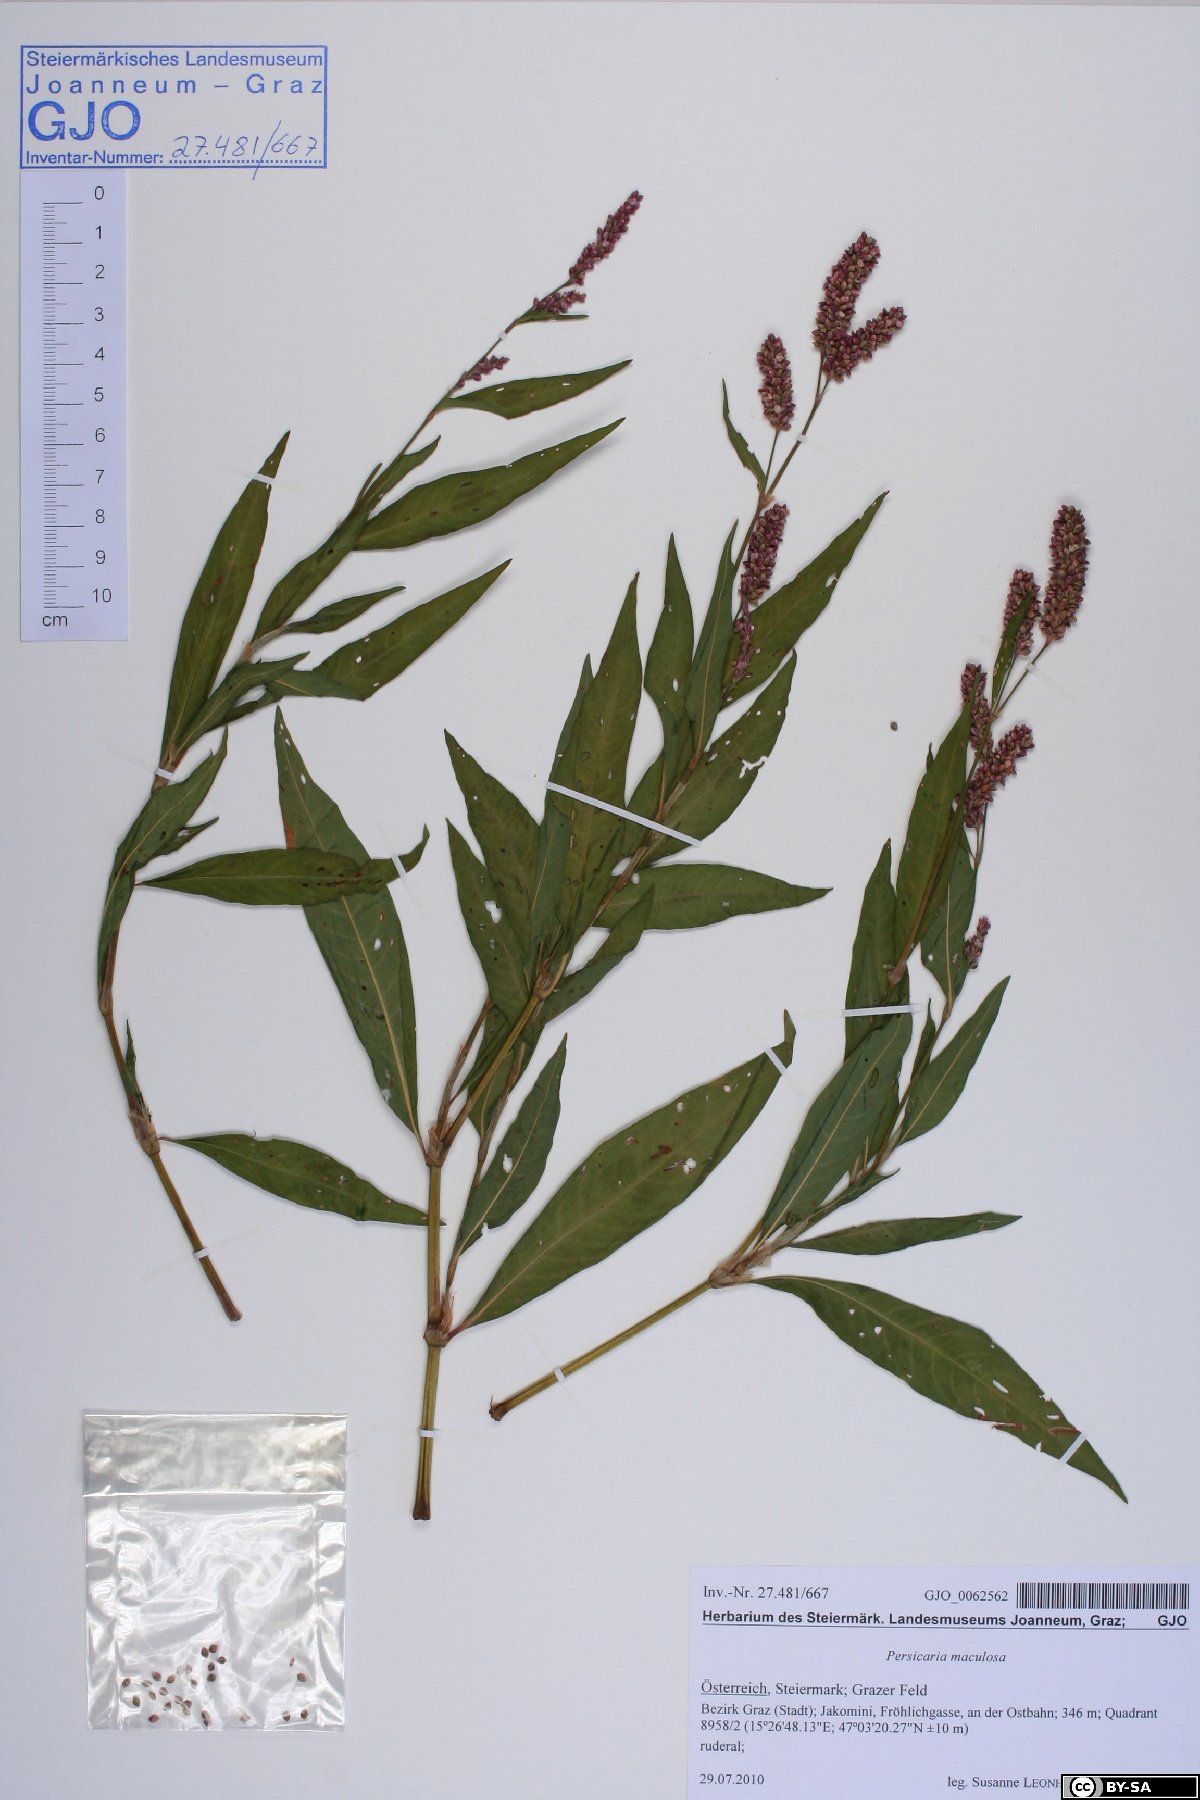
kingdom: Plantae
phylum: Tracheophyta
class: Magnoliopsida
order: Caryophyllales
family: Polygonaceae
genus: Persicaria
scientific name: Persicaria maculosa
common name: Redshank
